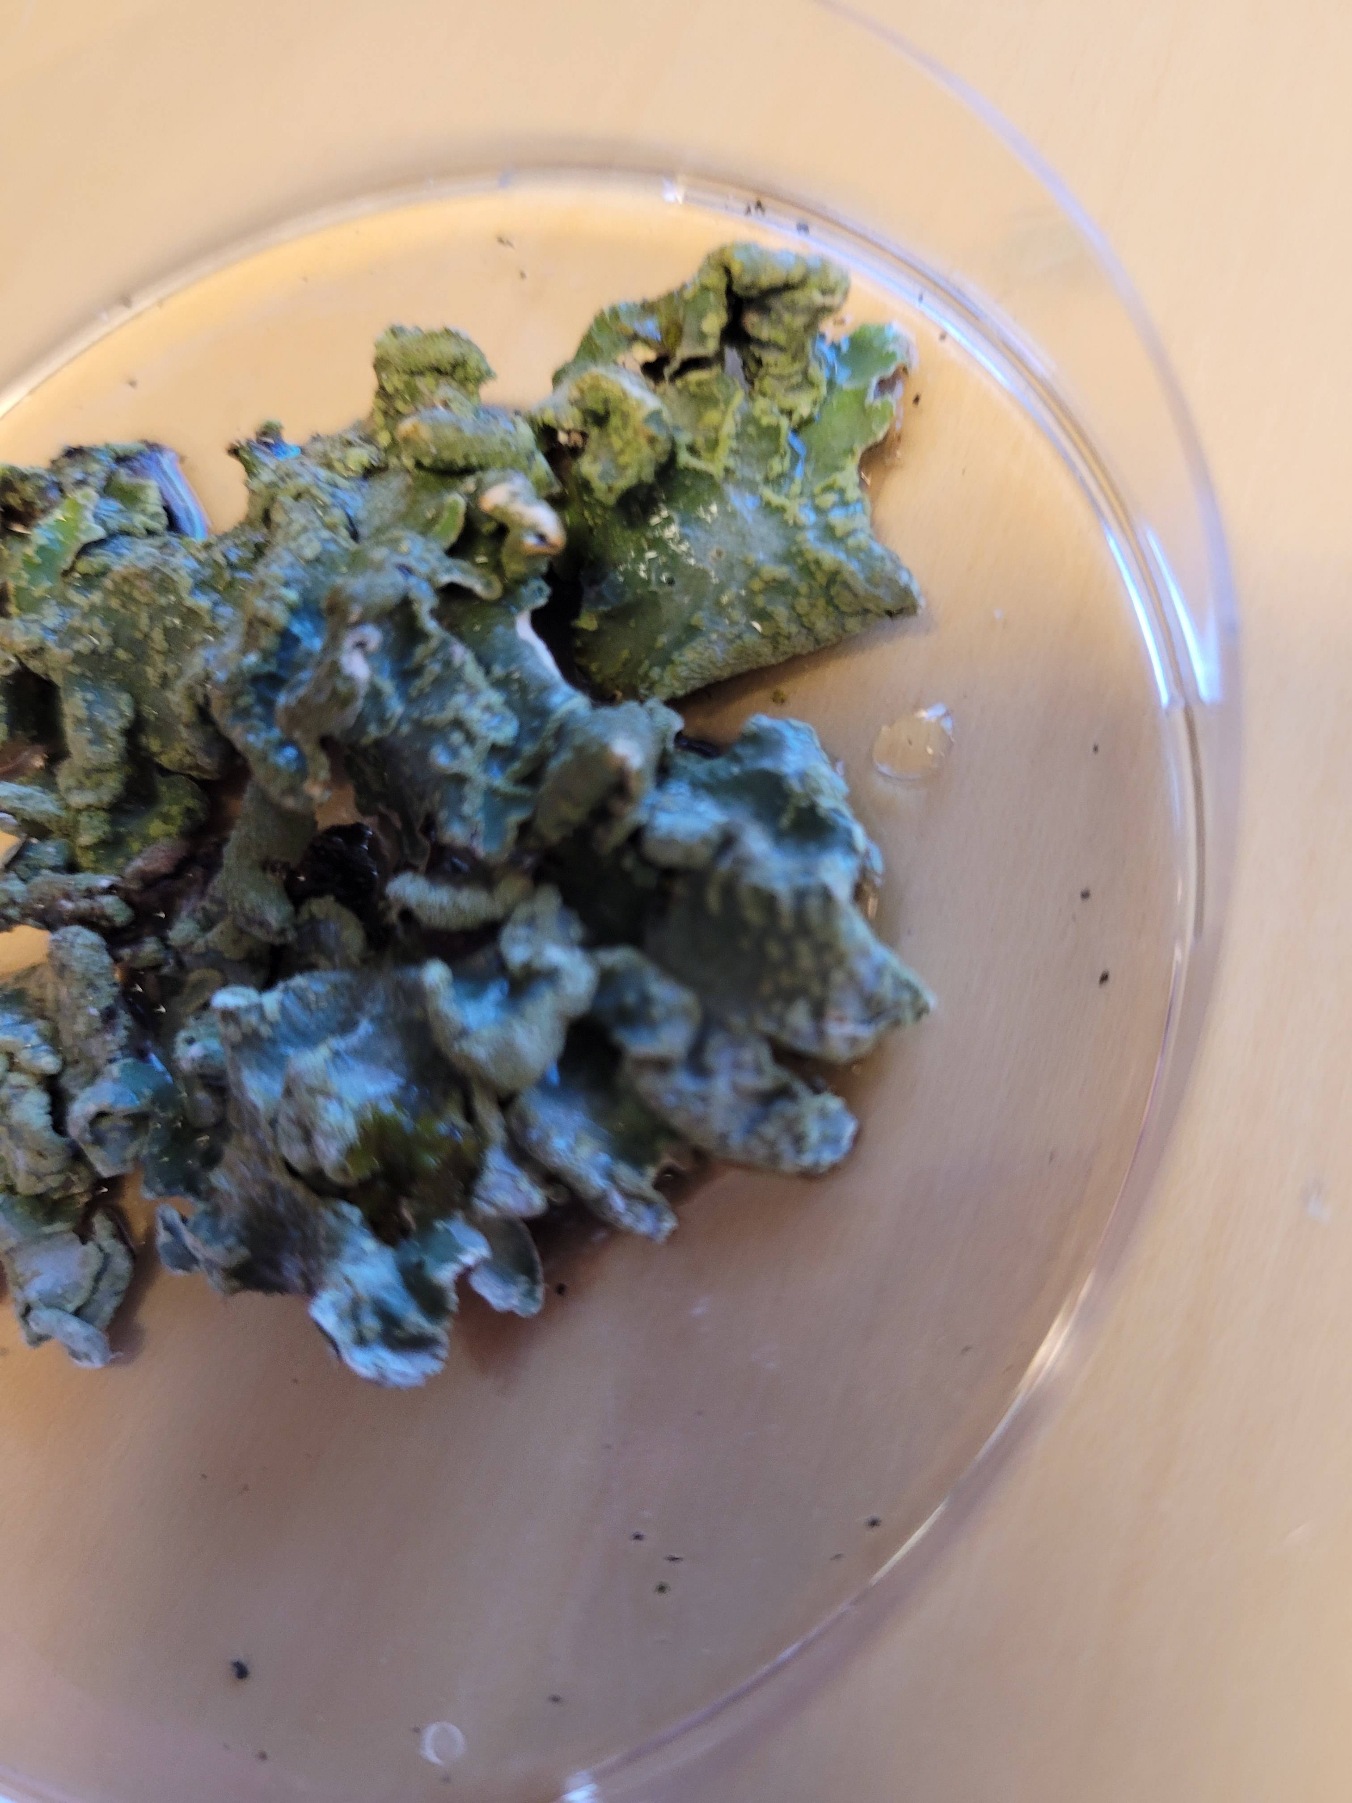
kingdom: Fungi
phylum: Ascomycota
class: Lecanoromycetes
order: Lecanorales
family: Parmeliaceae
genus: Parmelia
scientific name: Parmelia sulcata
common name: Rynket skållav
